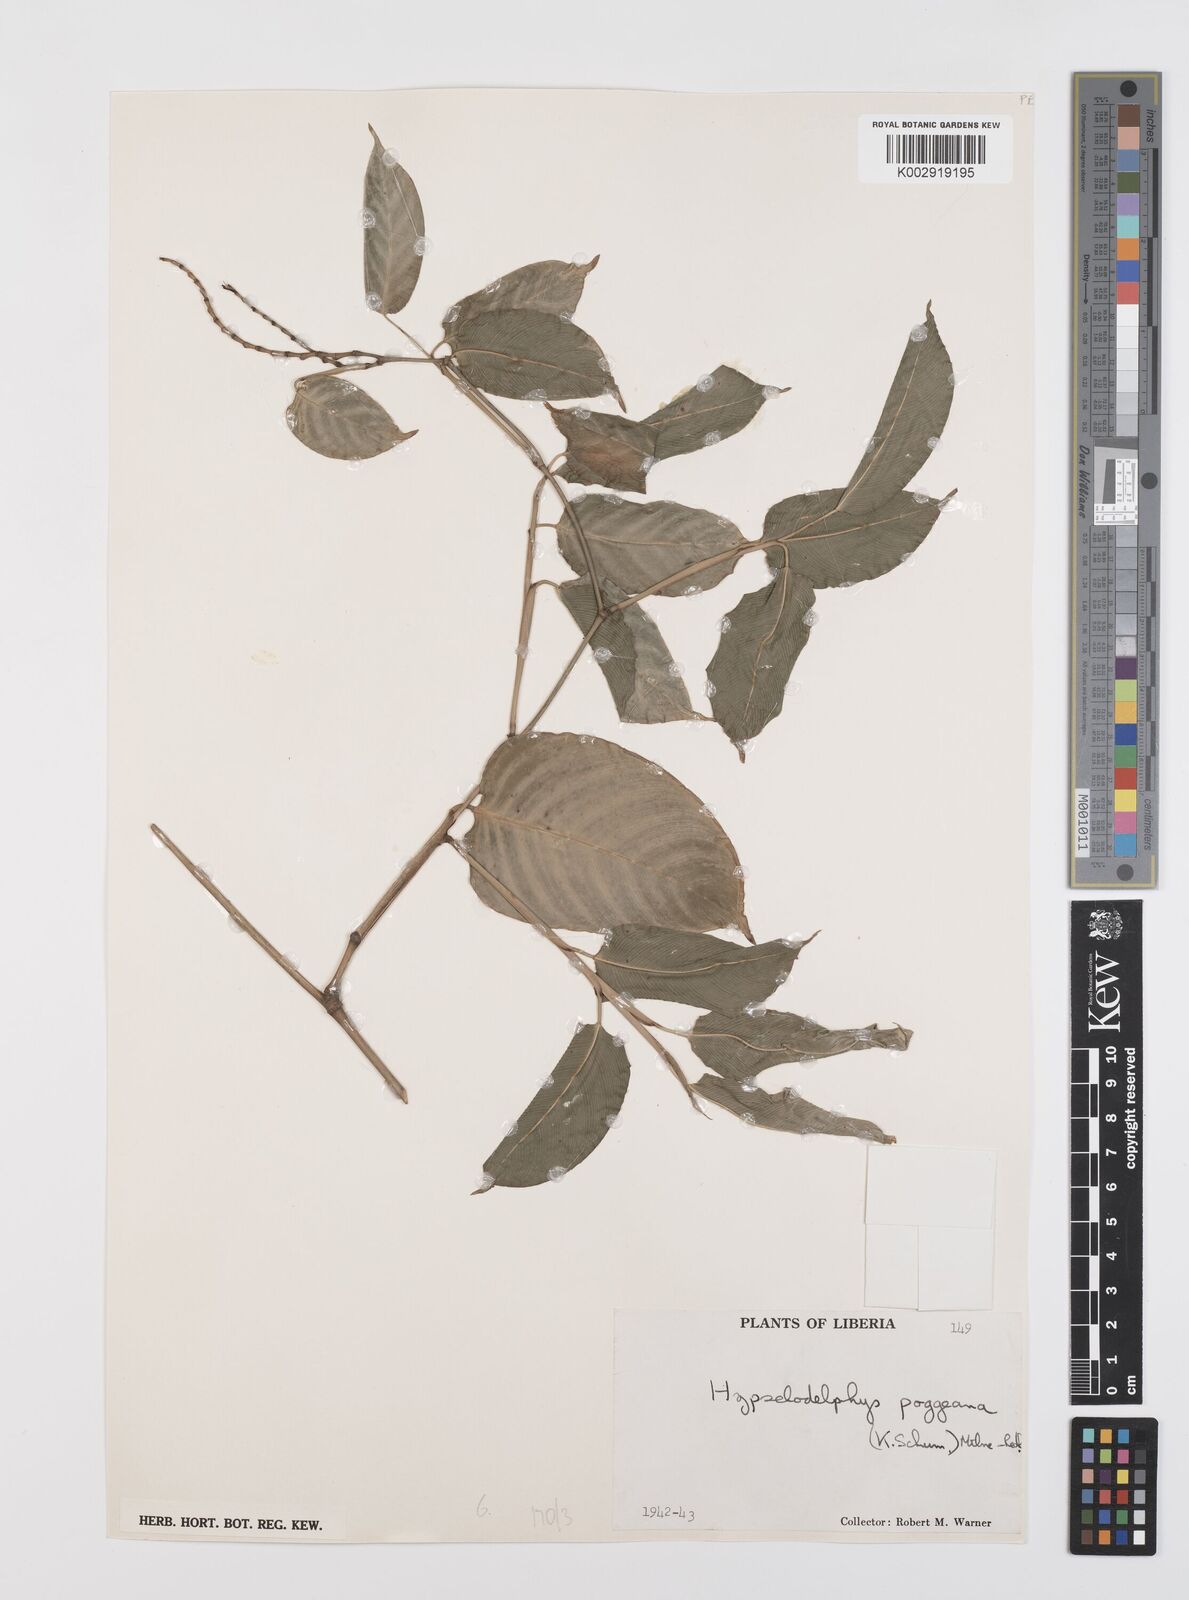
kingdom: Plantae
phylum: Tracheophyta
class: Liliopsida
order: Zingiberales
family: Marantaceae
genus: Hypselodelphys
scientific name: Hypselodelphys poggeana
